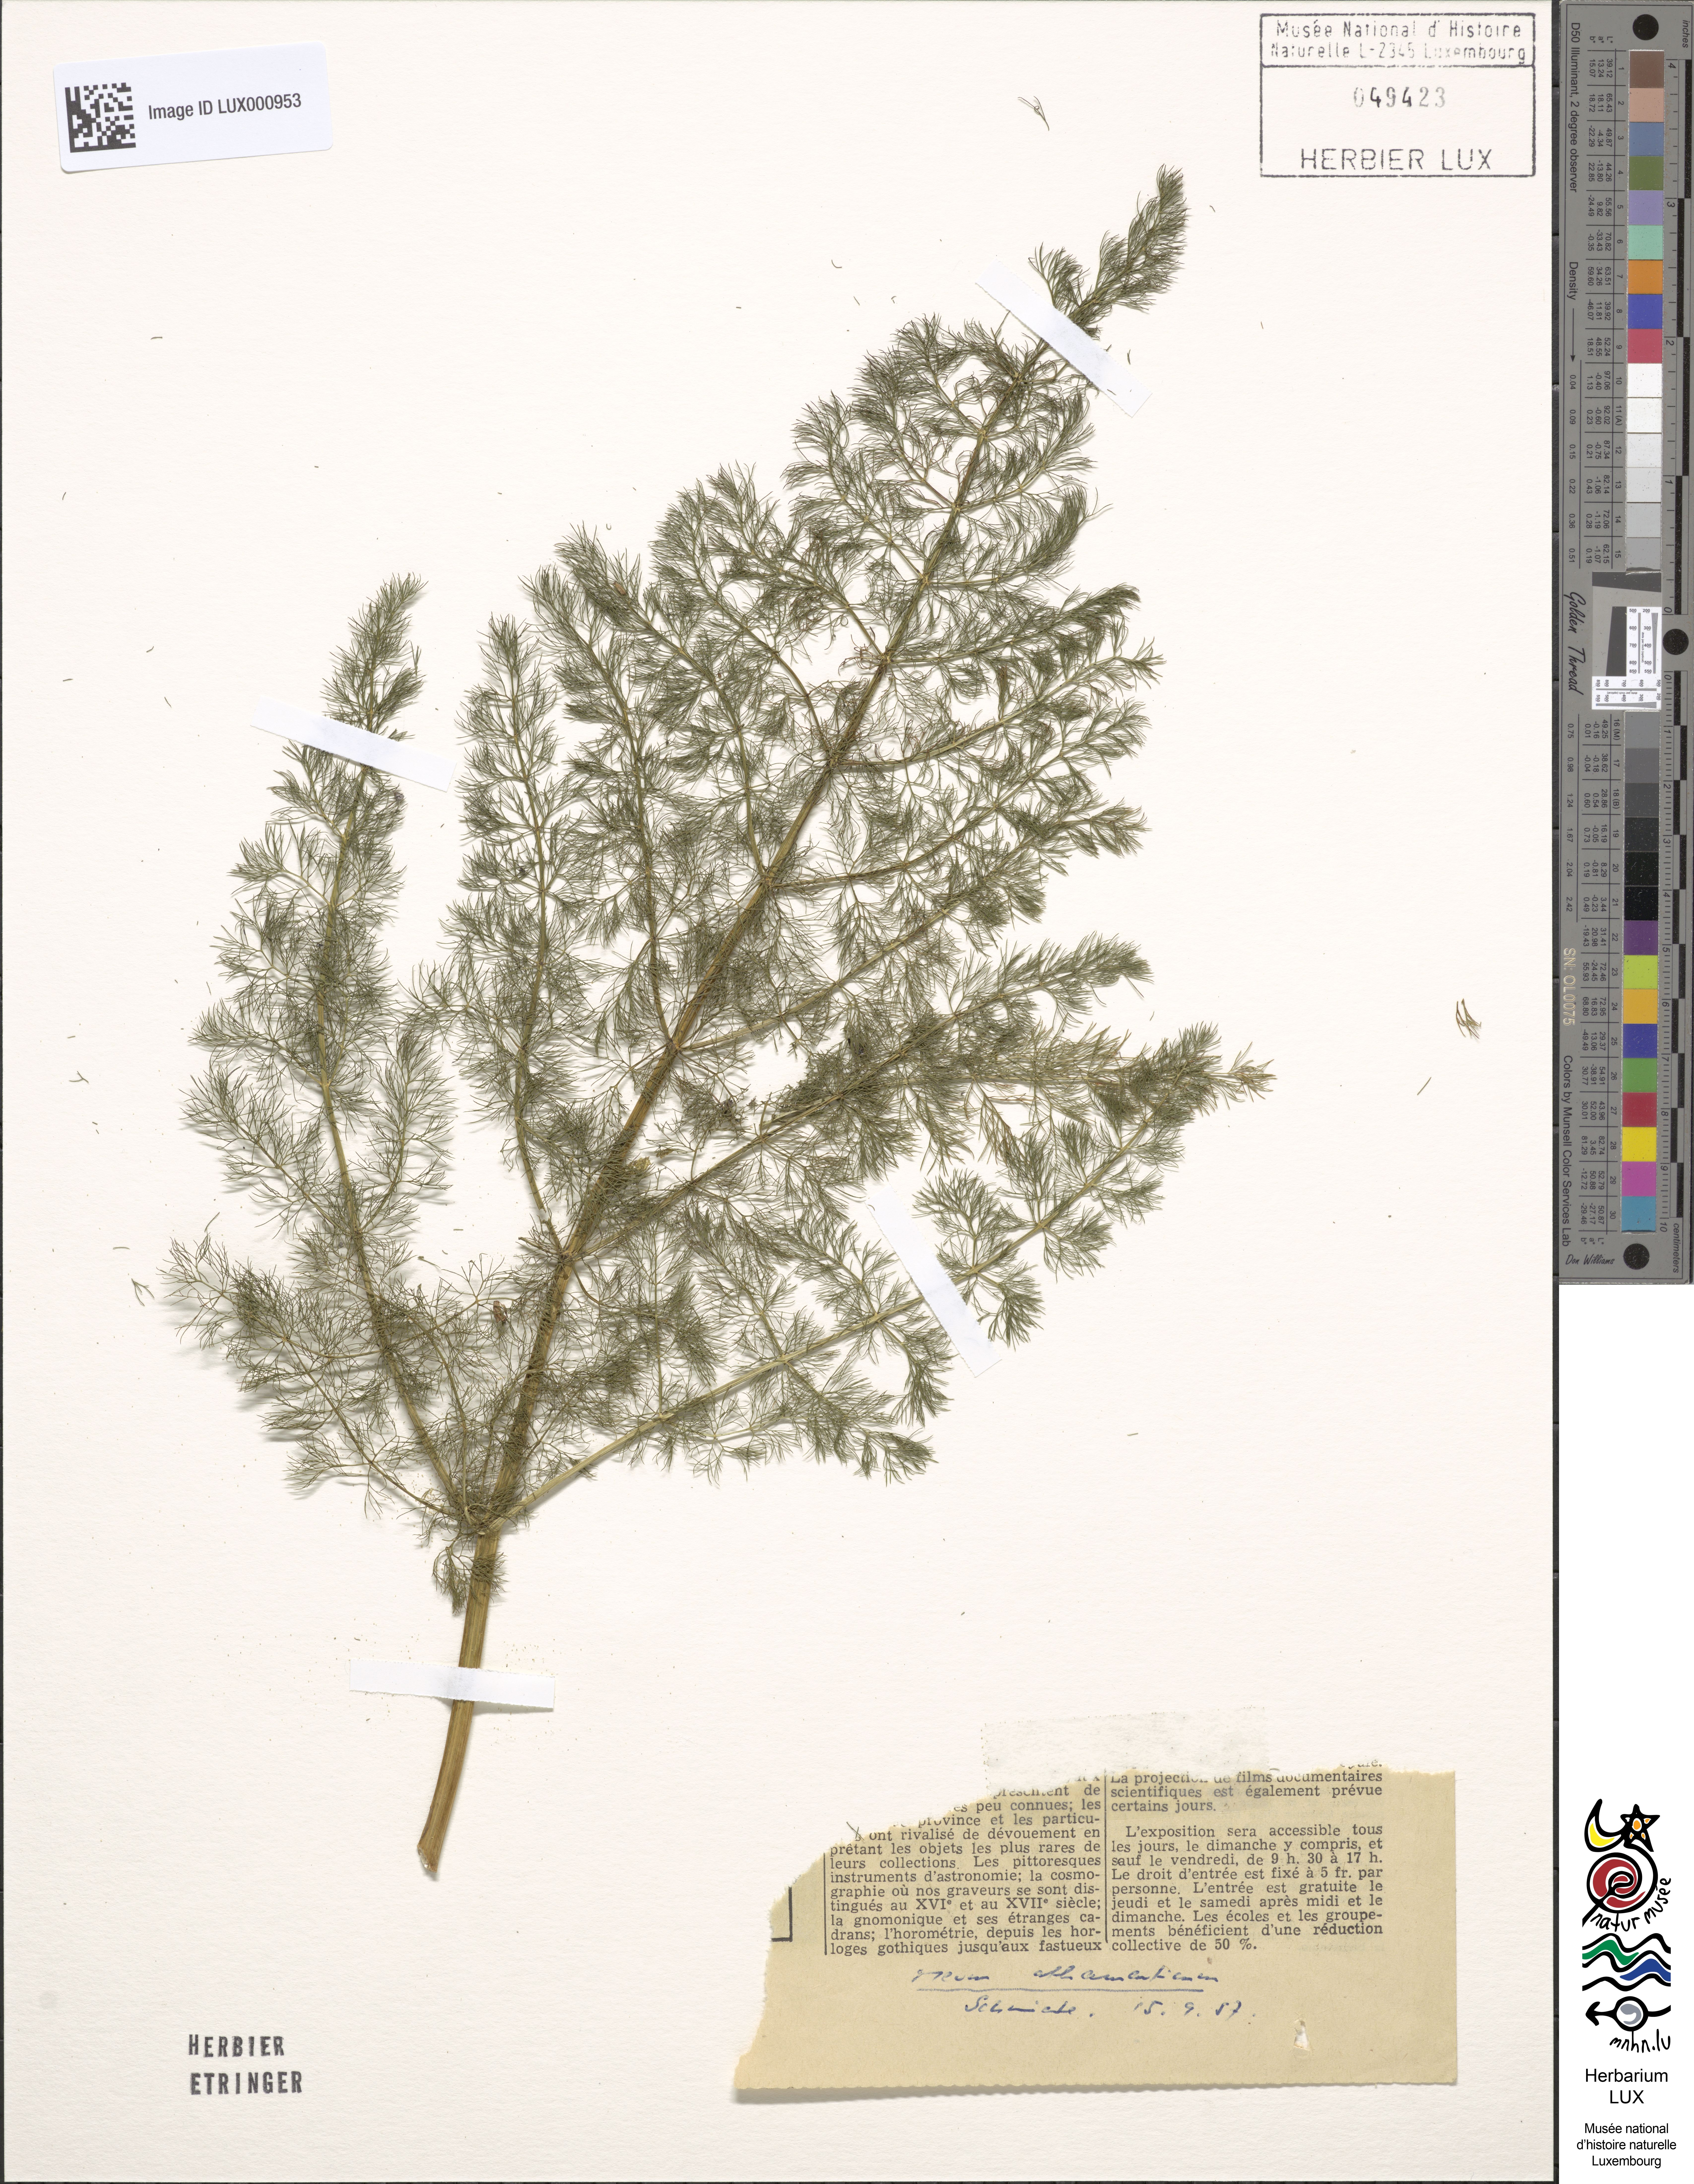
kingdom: Plantae
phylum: Tracheophyta
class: Magnoliopsida
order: Apiales
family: Apiaceae
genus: Meum
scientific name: Meum athamanticum
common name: Spignel
